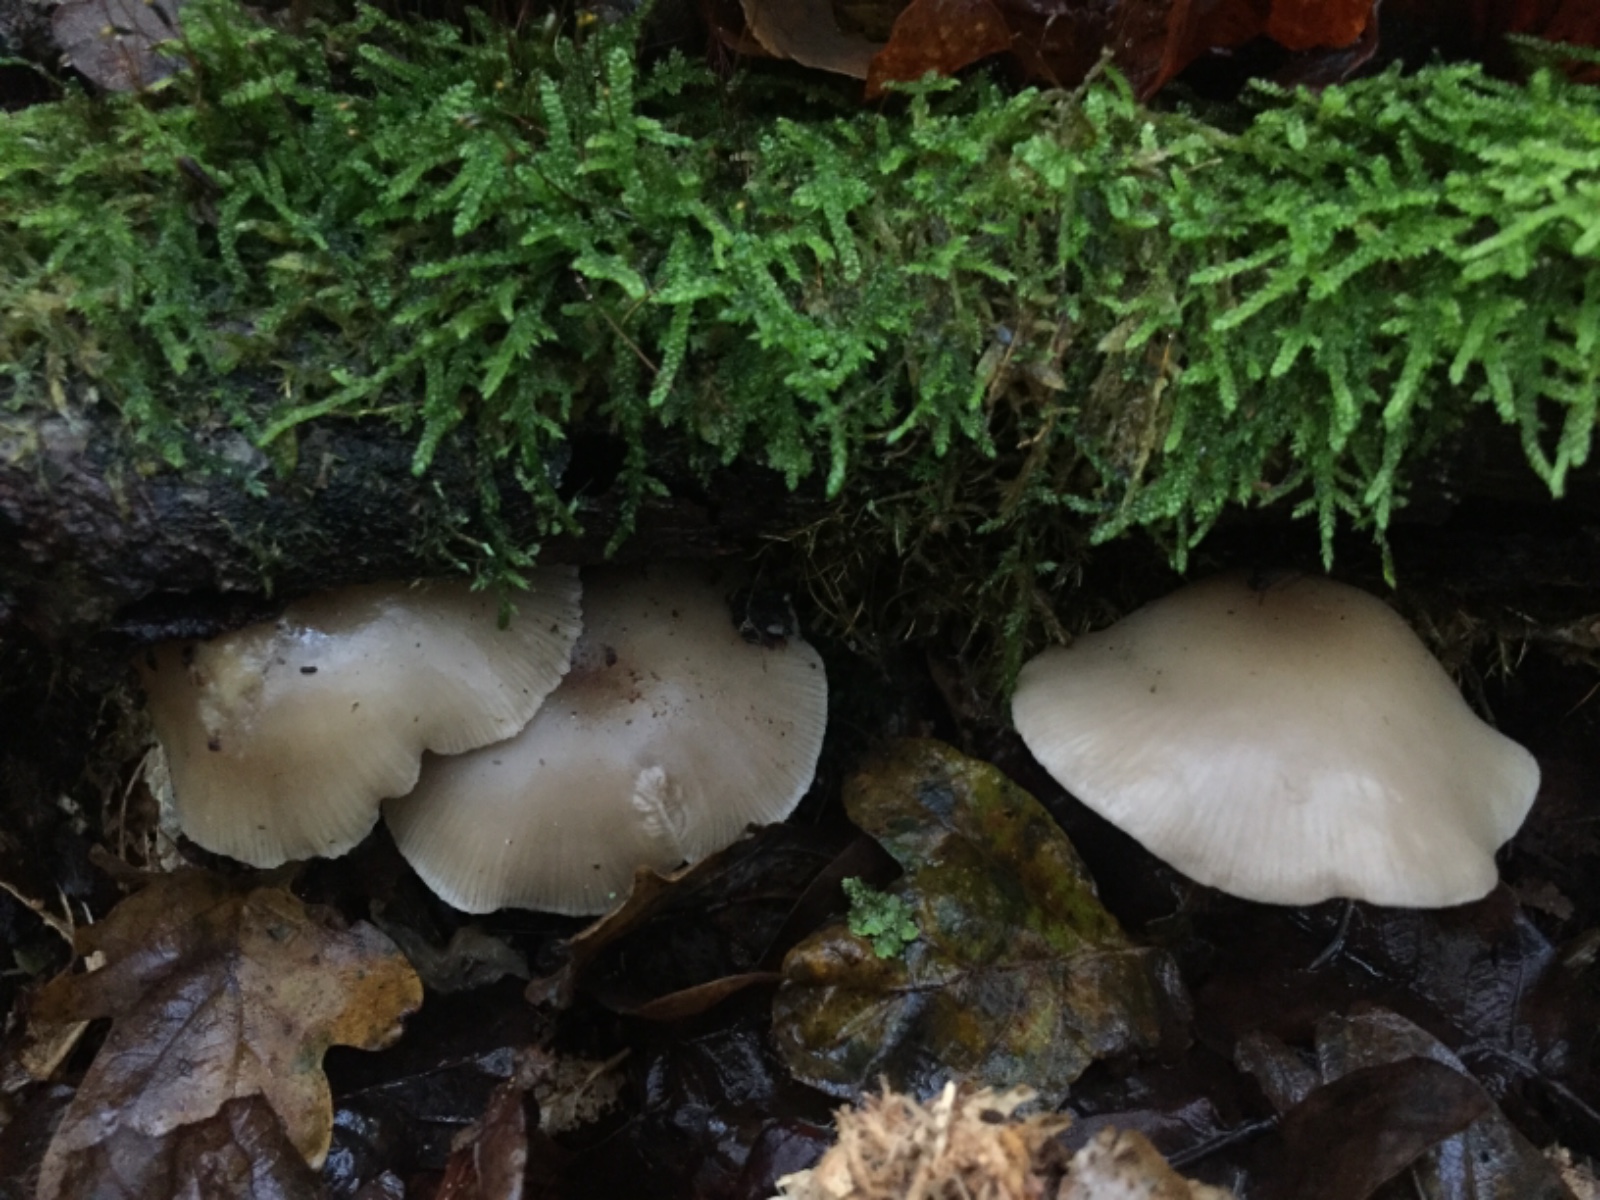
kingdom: Fungi
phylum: Basidiomycota
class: Agaricomycetes
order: Agaricales
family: Tricholomataceae
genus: Clitocybe
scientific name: Clitocybe
